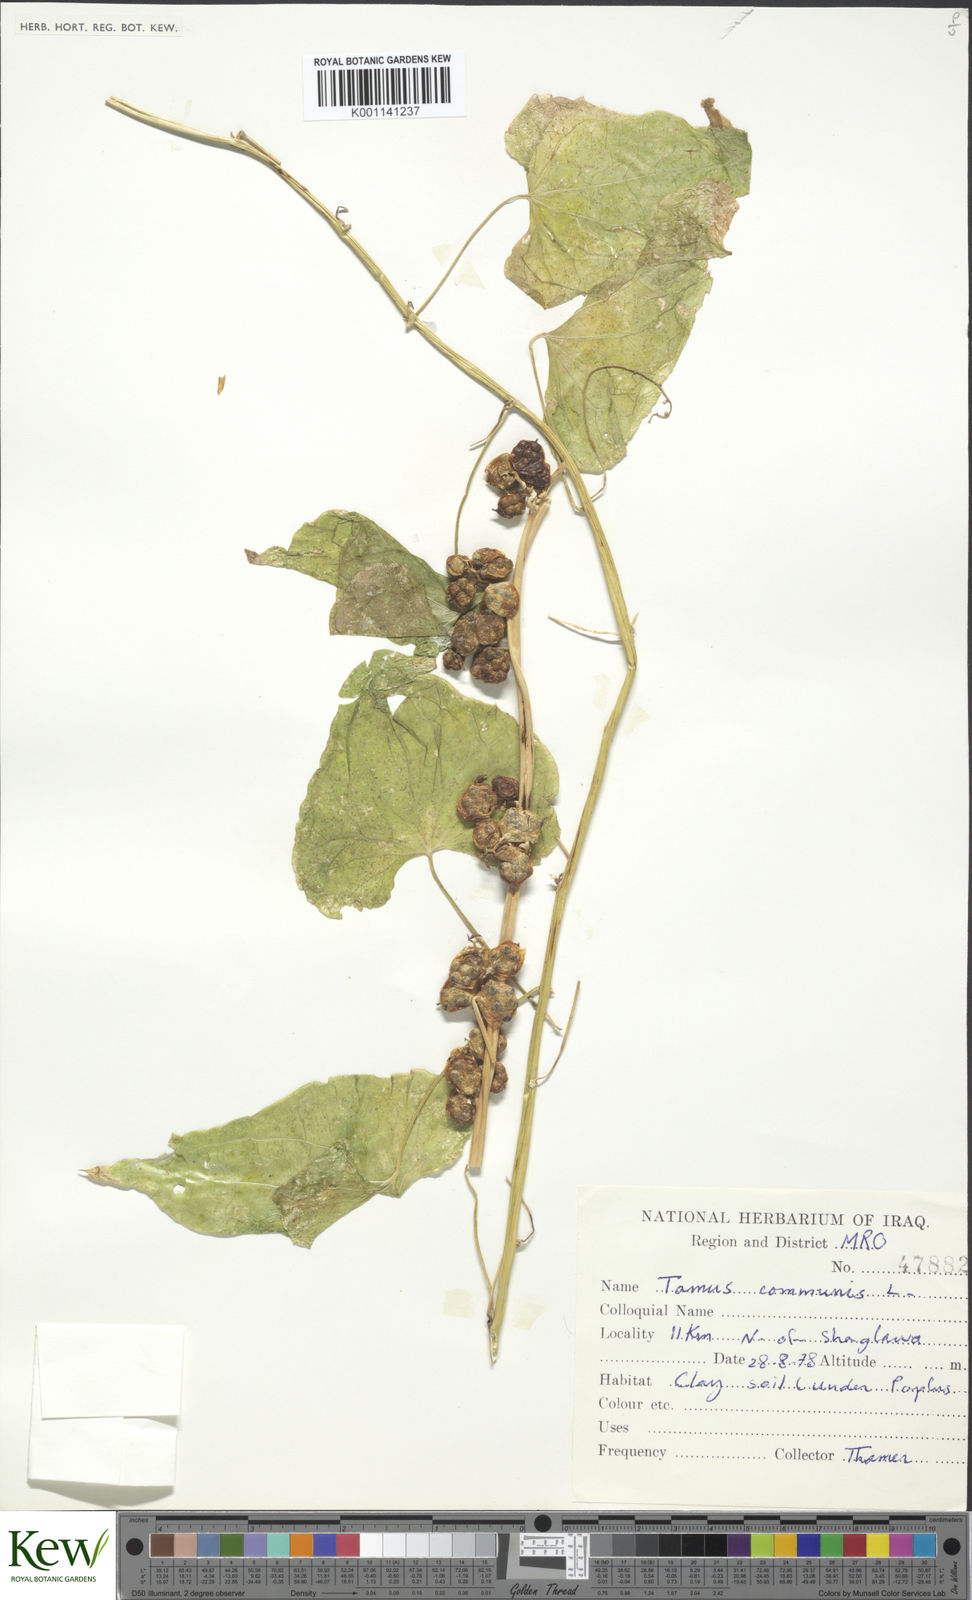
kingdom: Plantae
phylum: Tracheophyta
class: Liliopsida
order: Dioscoreales
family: Dioscoreaceae
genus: Dioscorea
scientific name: Dioscorea communis
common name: Black-bindweed
